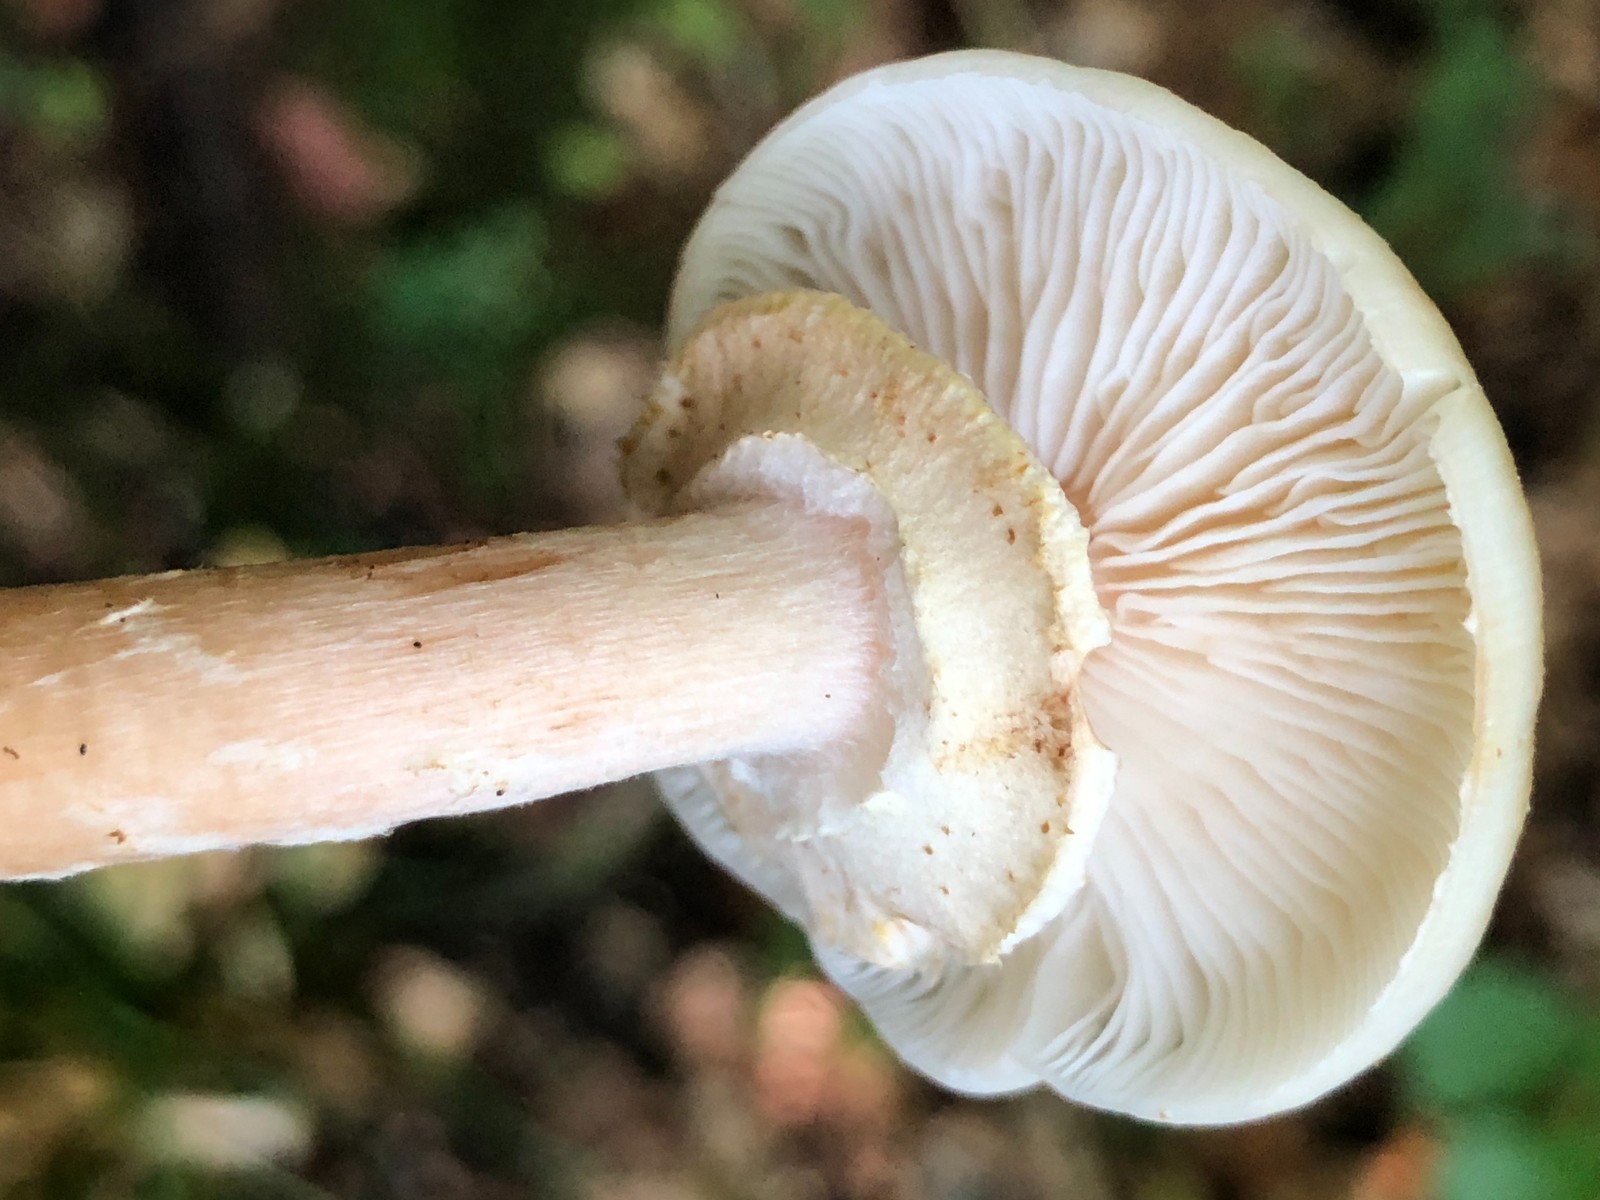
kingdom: Fungi
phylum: Basidiomycota
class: Agaricomycetes
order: Agaricales
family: Physalacriaceae
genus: Armillaria
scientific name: Armillaria mellea
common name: ægte honningsvamp
